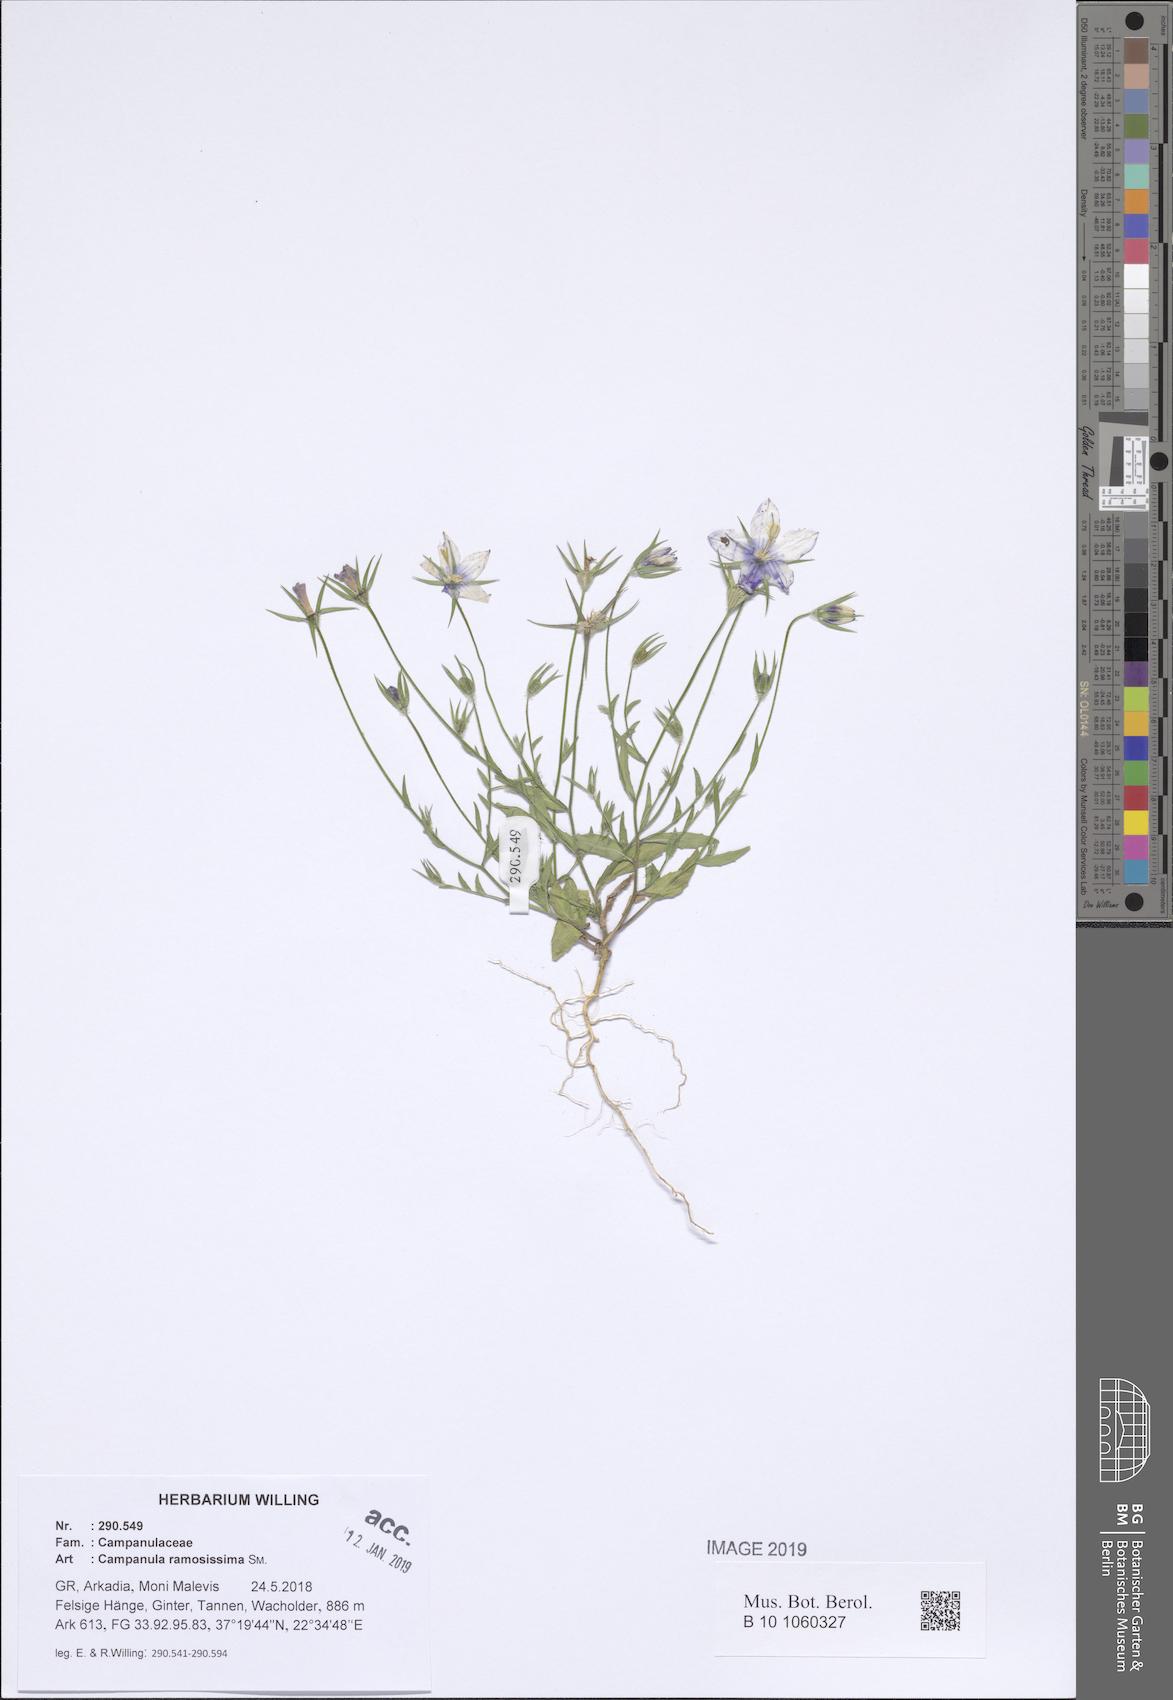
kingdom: Plantae
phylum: Tracheophyta
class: Magnoliopsida
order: Asterales
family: Campanulaceae
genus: Campanula
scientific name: Campanula ramosissima
